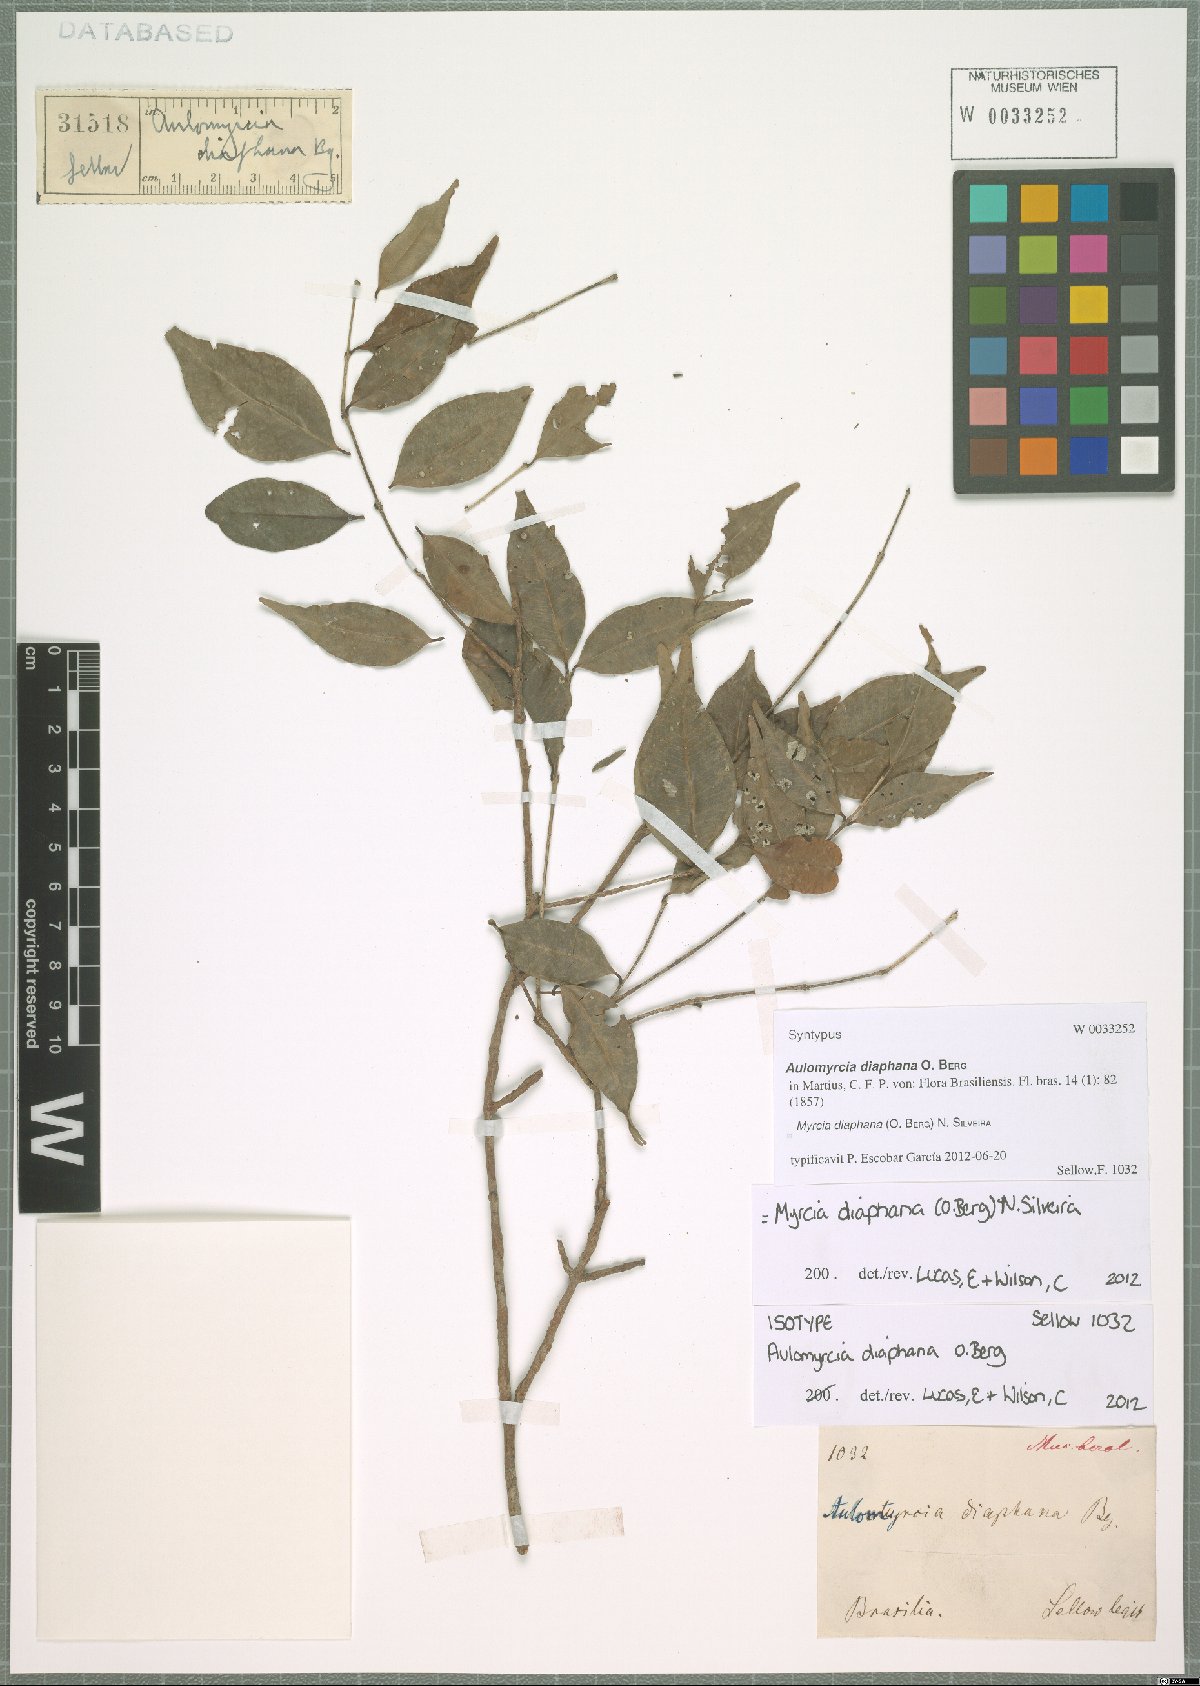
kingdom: Plantae
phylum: Tracheophyta
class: Magnoliopsida
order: Myrtales
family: Myrtaceae
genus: Myrcia
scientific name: Myrcia diaphana
